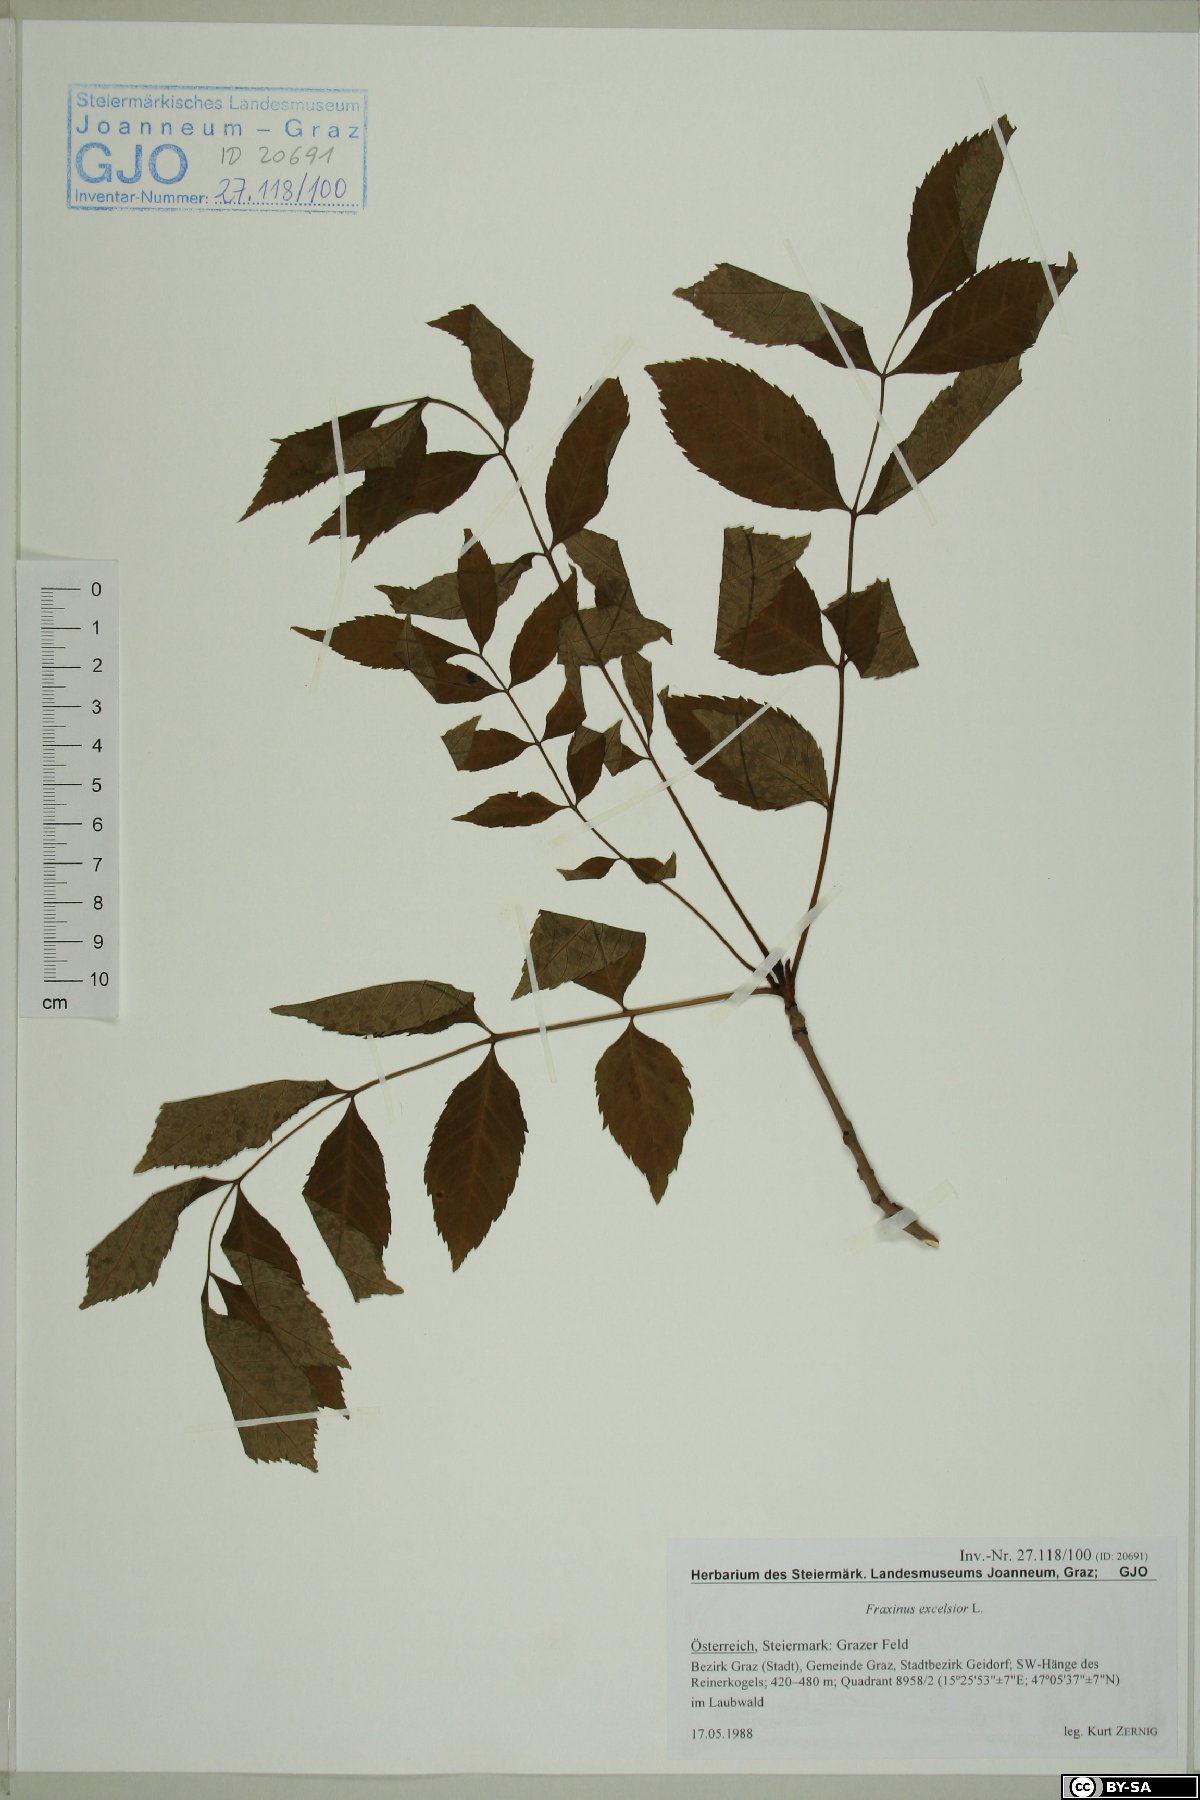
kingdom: Plantae
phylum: Tracheophyta
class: Magnoliopsida
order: Lamiales
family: Oleaceae
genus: Fraxinus
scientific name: Fraxinus excelsior
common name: European ash
